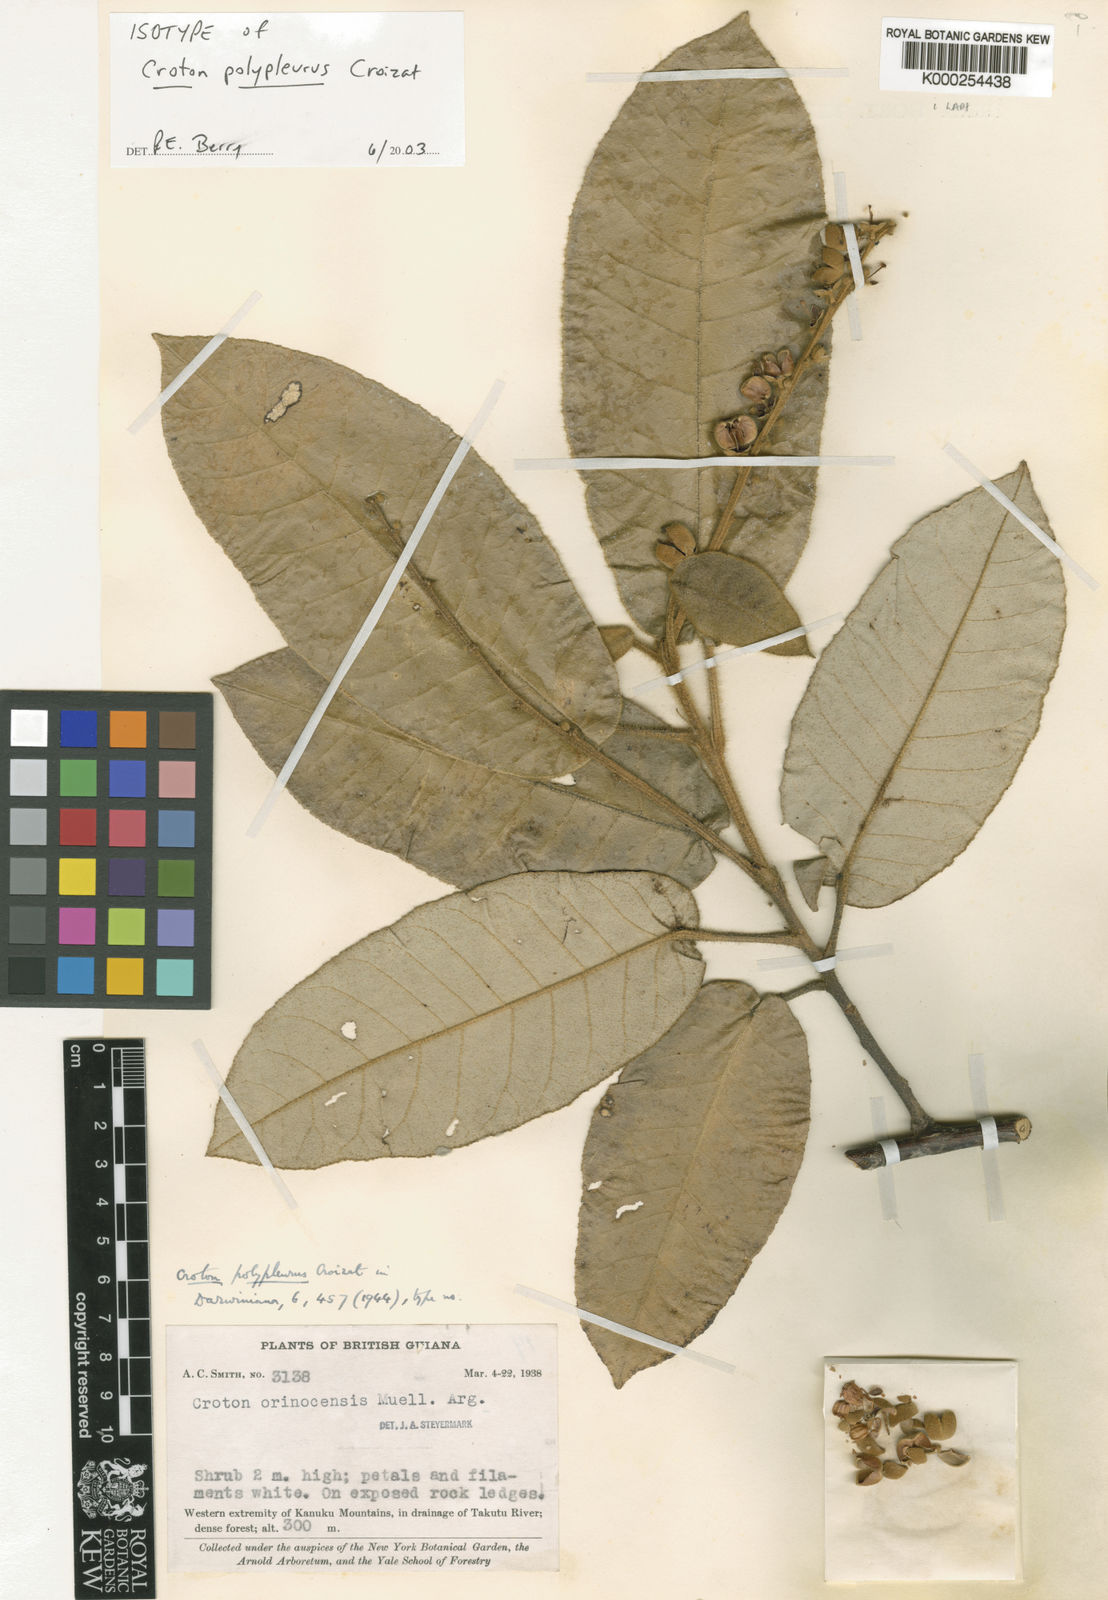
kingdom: Plantae
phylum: Tracheophyta
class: Magnoliopsida
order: Malpighiales
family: Euphorbiaceae
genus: Croton
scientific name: Croton polypleurus
